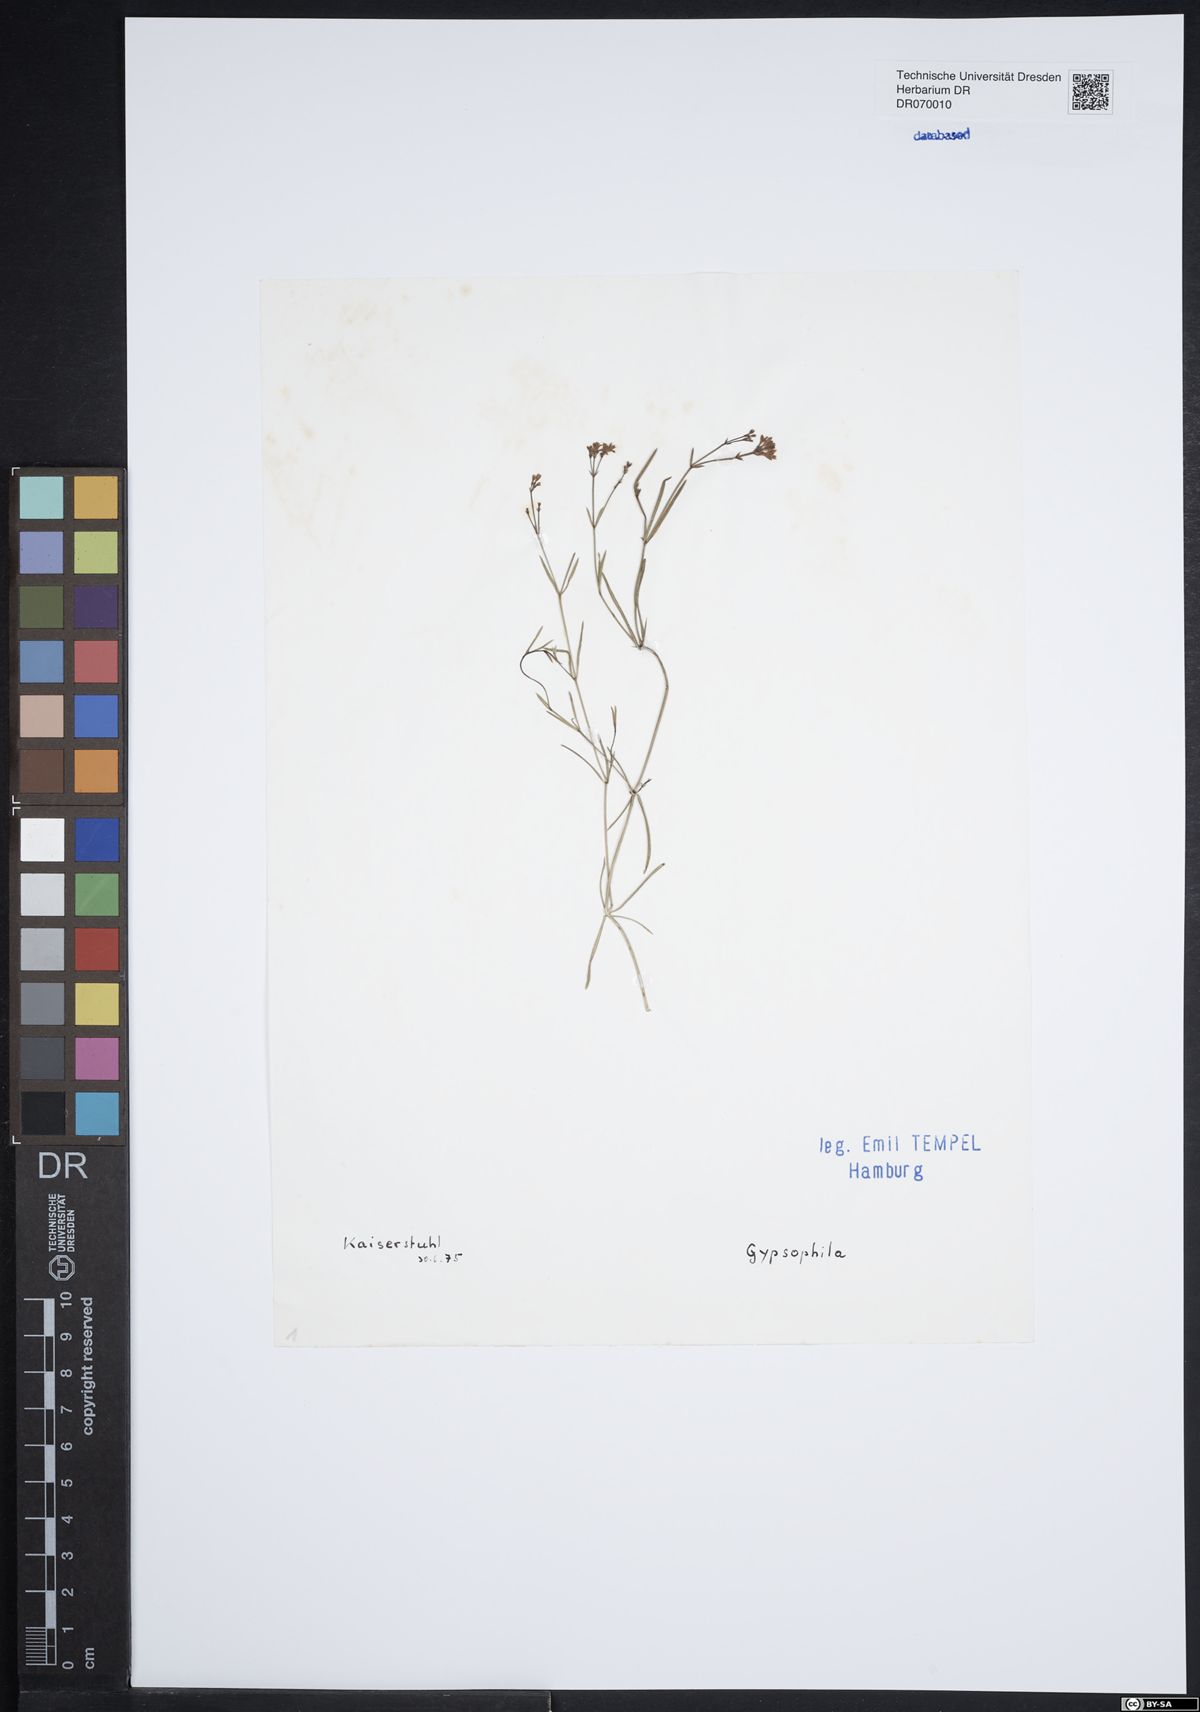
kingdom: Plantae
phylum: Tracheophyta
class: Magnoliopsida
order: Caryophyllales
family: Caryophyllaceae
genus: Gypsophila
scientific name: Gypsophila
